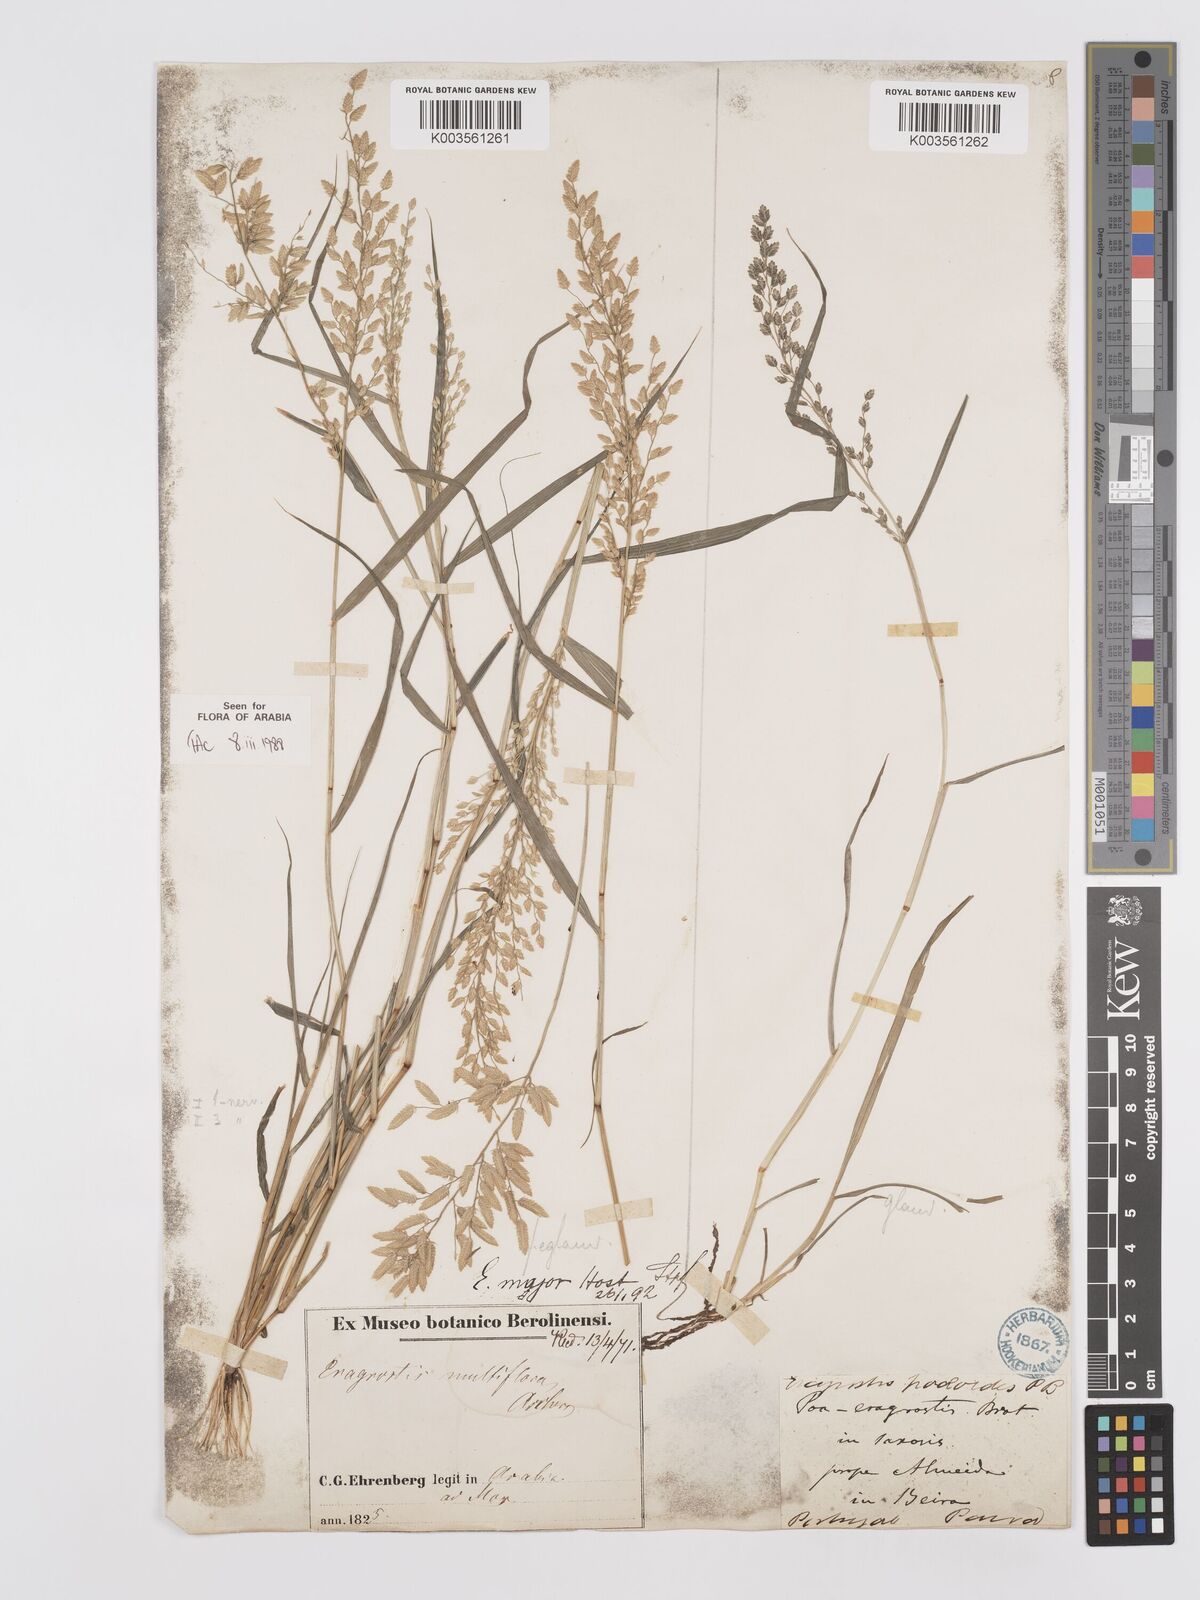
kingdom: Plantae
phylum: Tracheophyta
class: Liliopsida
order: Poales
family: Poaceae
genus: Eragrostis
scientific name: Eragrostis cilianensis
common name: Stinkgrass
